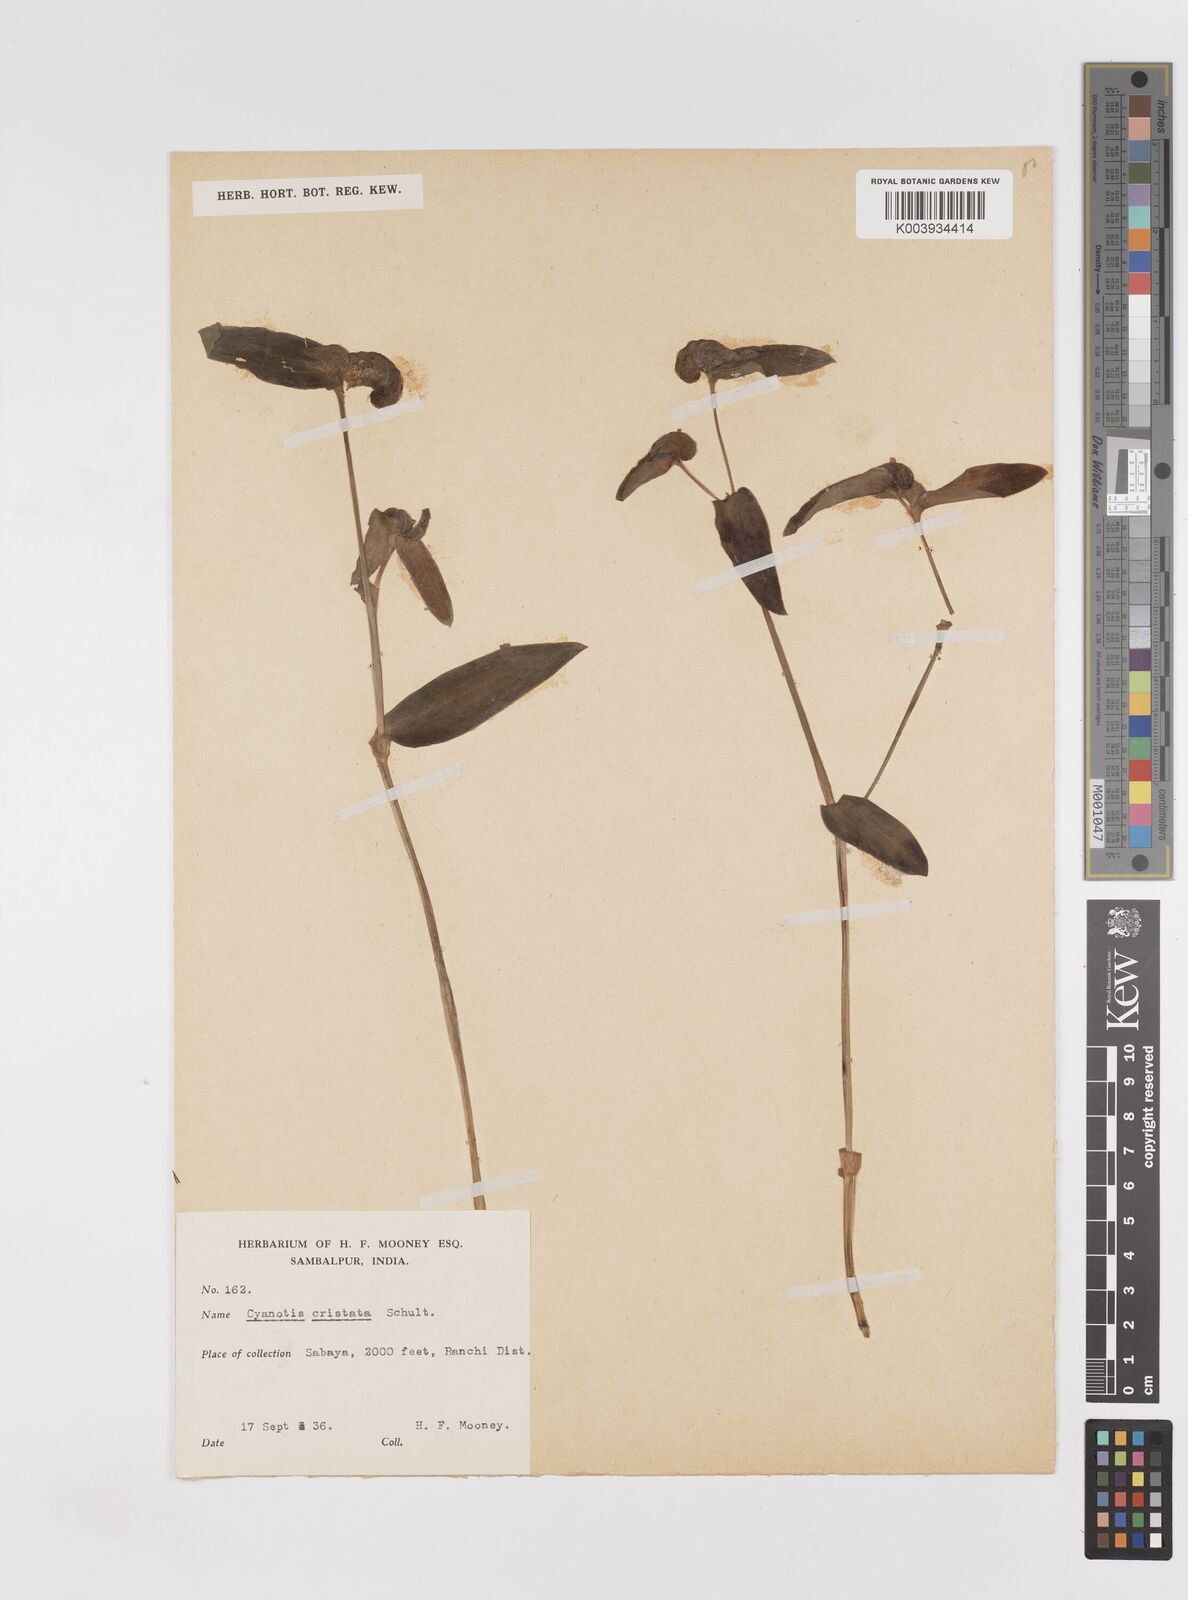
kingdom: Plantae
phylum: Tracheophyta
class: Liliopsida
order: Commelinales
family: Commelinaceae
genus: Cyanotis
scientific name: Cyanotis cristata
